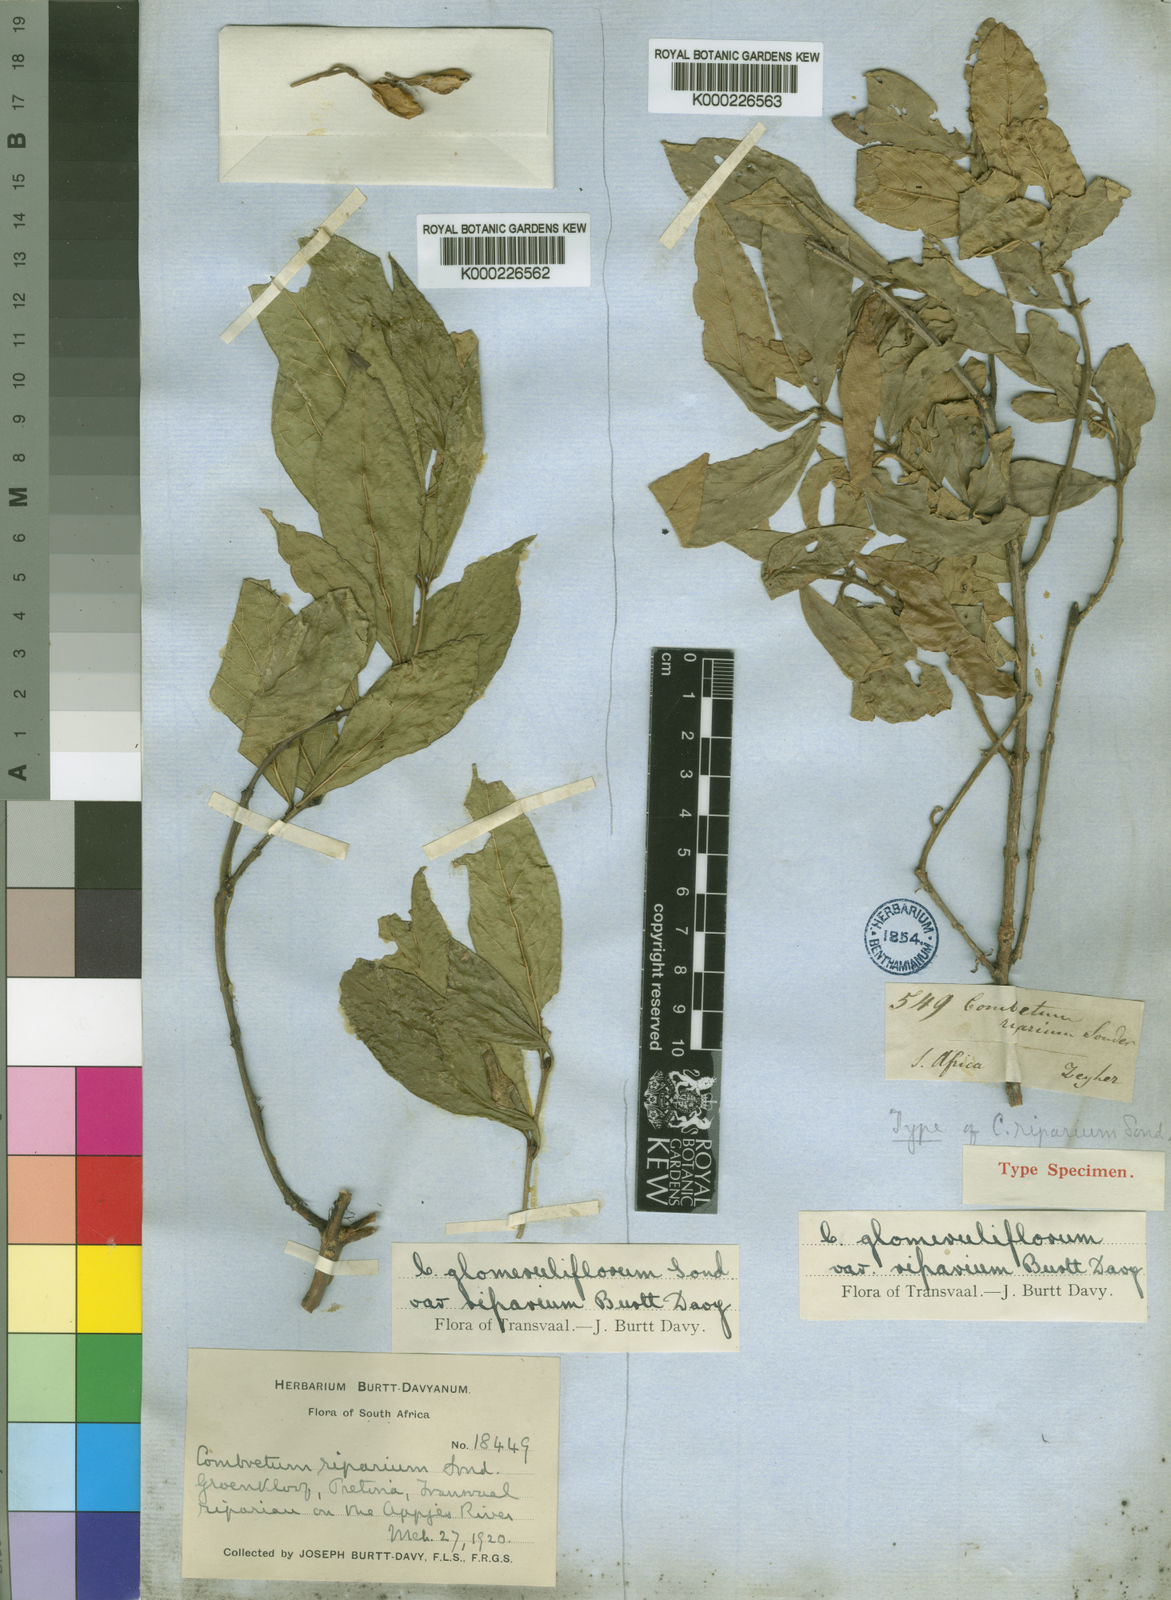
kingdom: Plantae
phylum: Tracheophyta
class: Magnoliopsida
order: Myrtales
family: Combretaceae
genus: Combretum
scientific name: Combretum erythrophyllum
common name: Bush-willow
